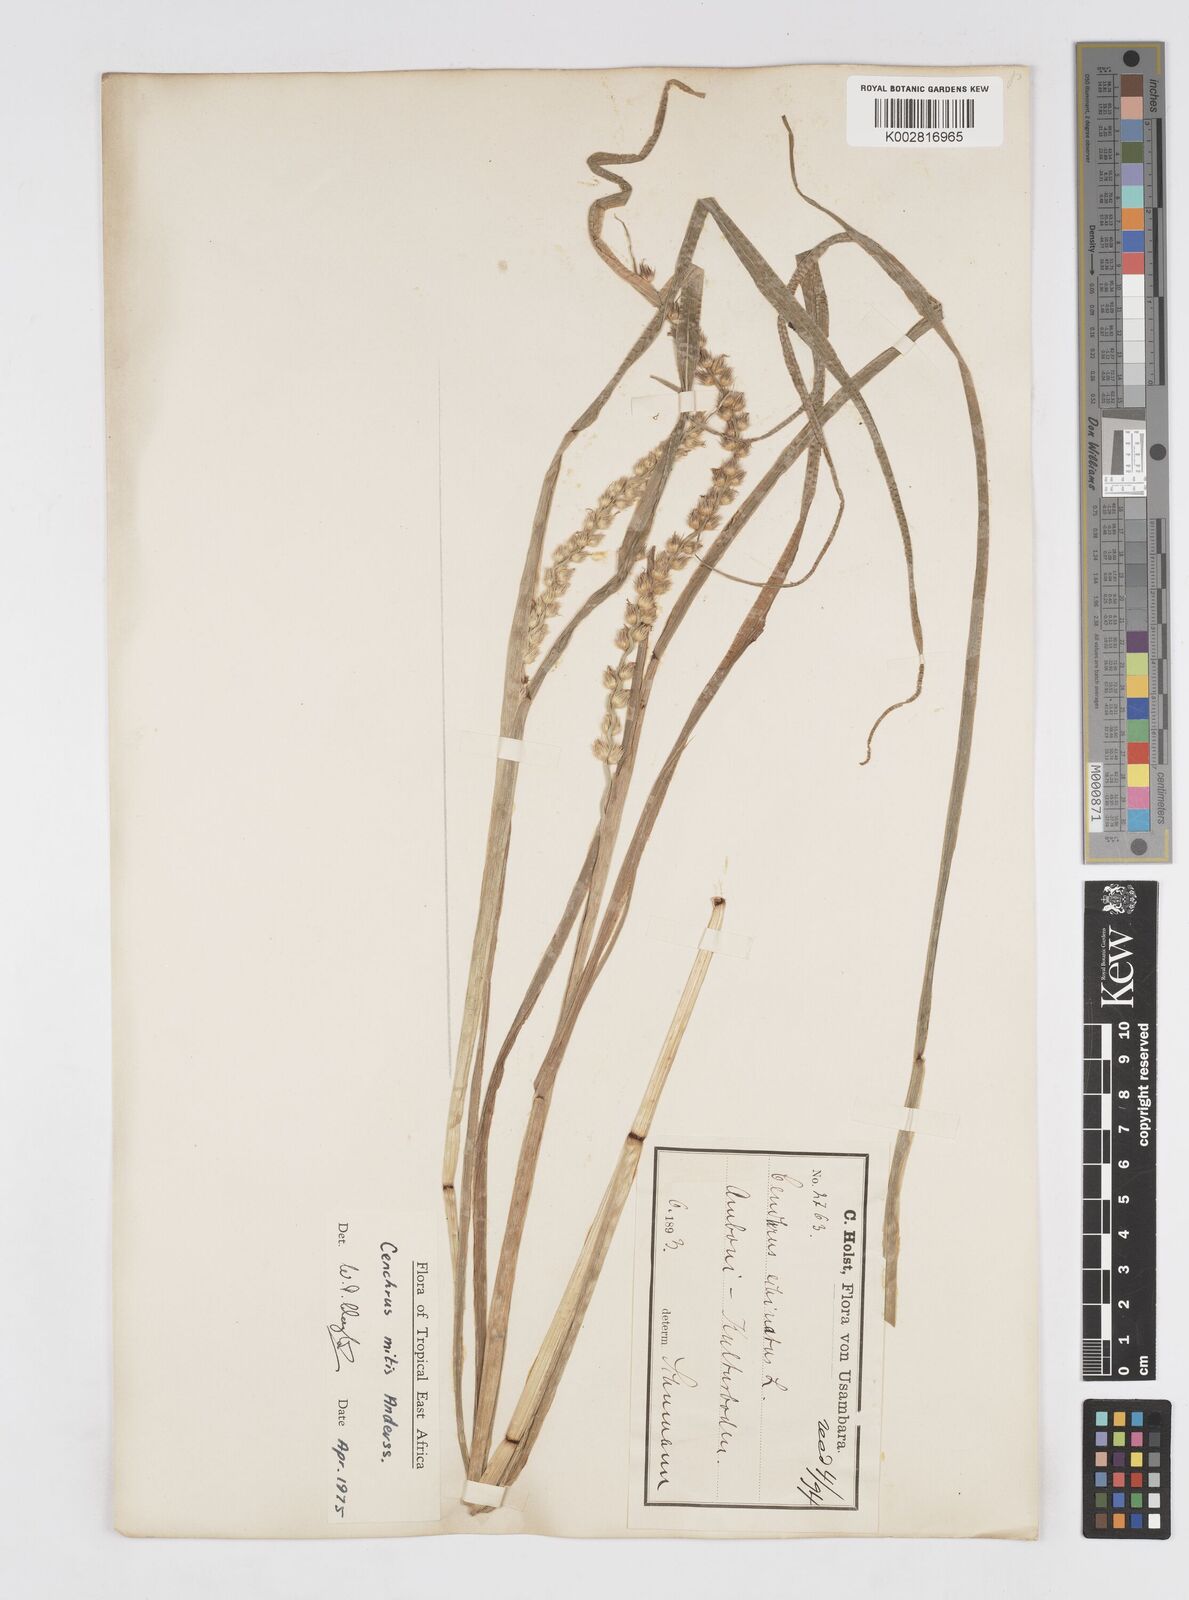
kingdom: Plantae
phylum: Tracheophyta
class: Liliopsida
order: Poales
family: Poaceae
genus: Cenchrus
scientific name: Cenchrus mitis
